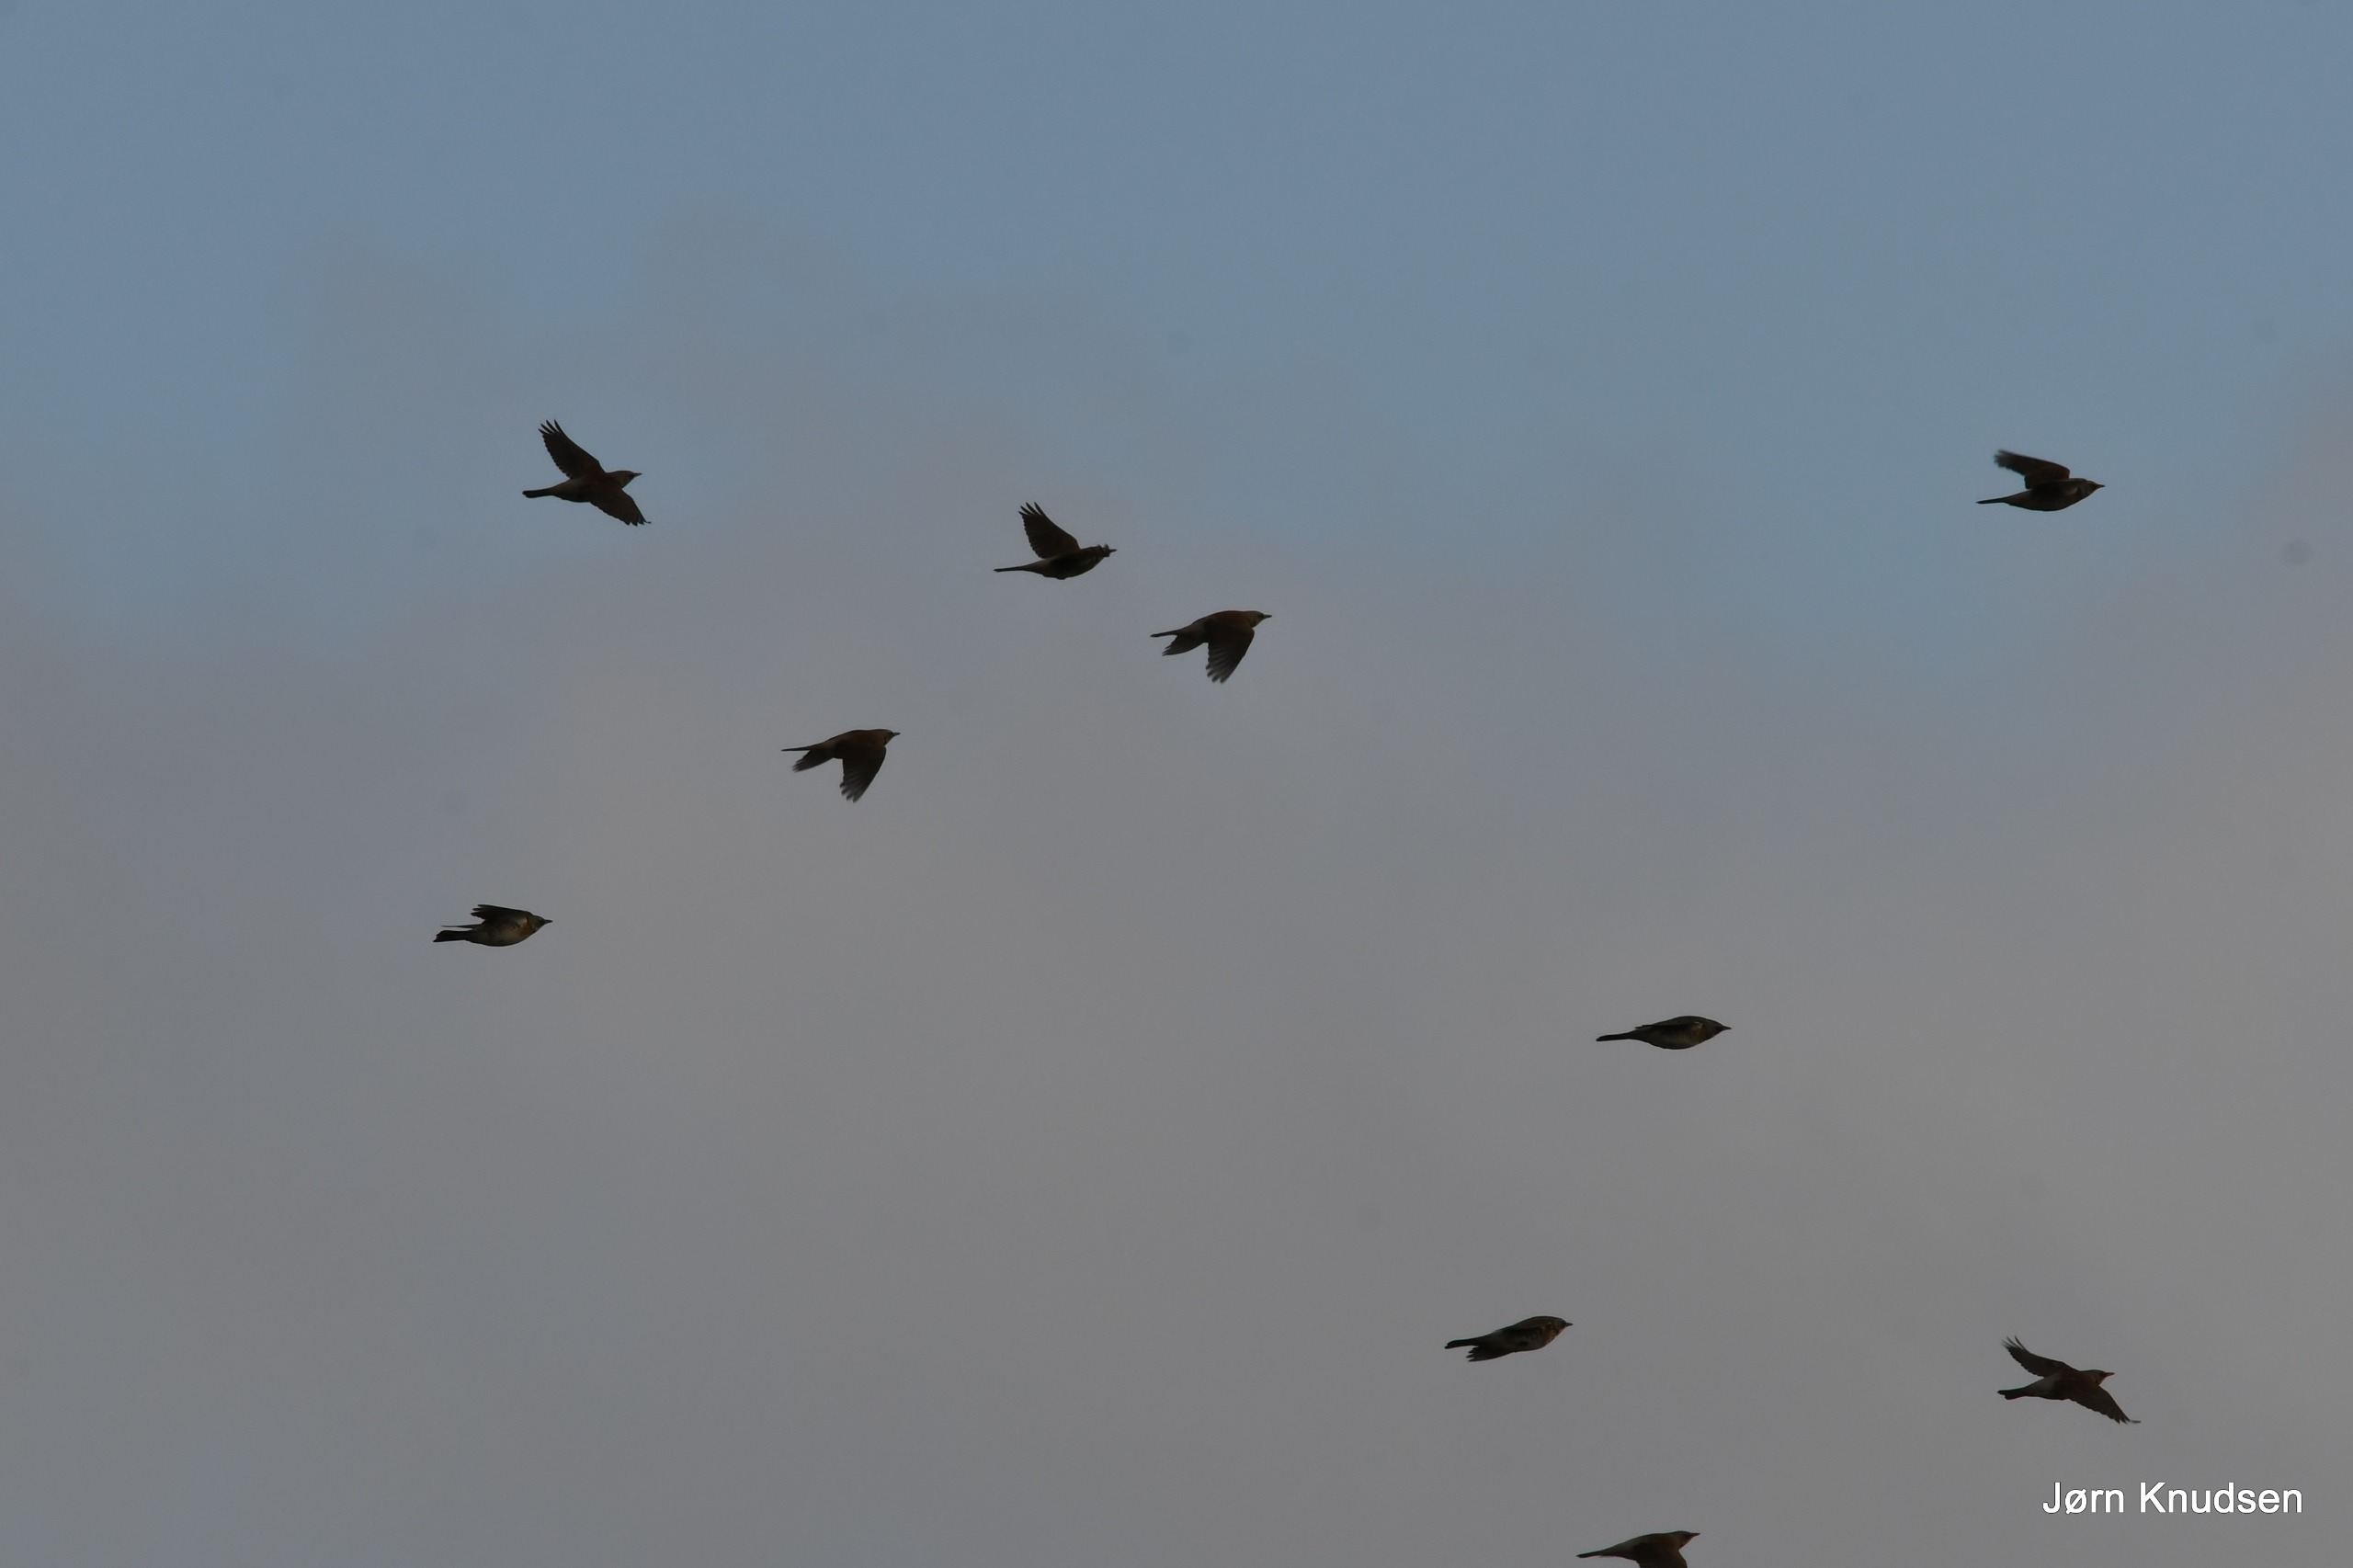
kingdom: Animalia
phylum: Chordata
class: Aves
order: Passeriformes
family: Turdidae
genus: Turdus
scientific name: Turdus pilaris
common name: Sjagger
